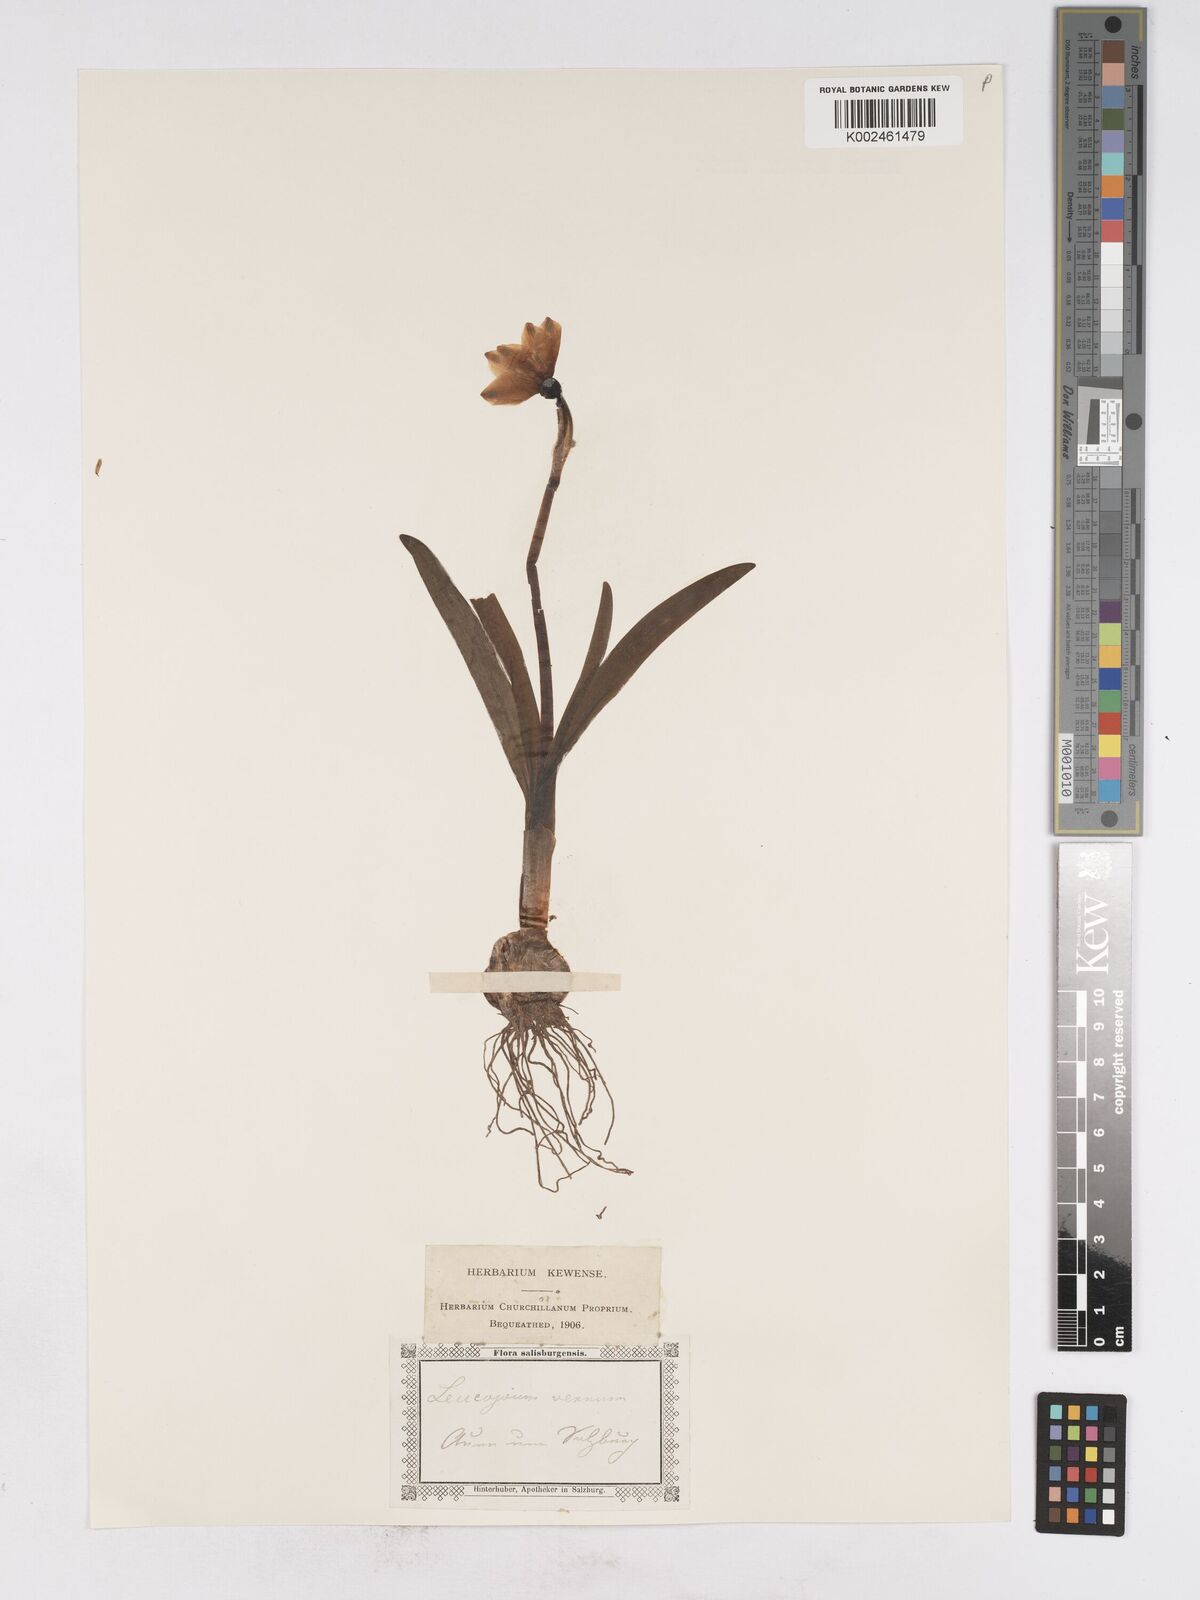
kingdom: Plantae
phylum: Tracheophyta
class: Liliopsida
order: Asparagales
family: Amaryllidaceae
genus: Leucojum
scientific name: Leucojum vernum
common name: Spring snowflake
